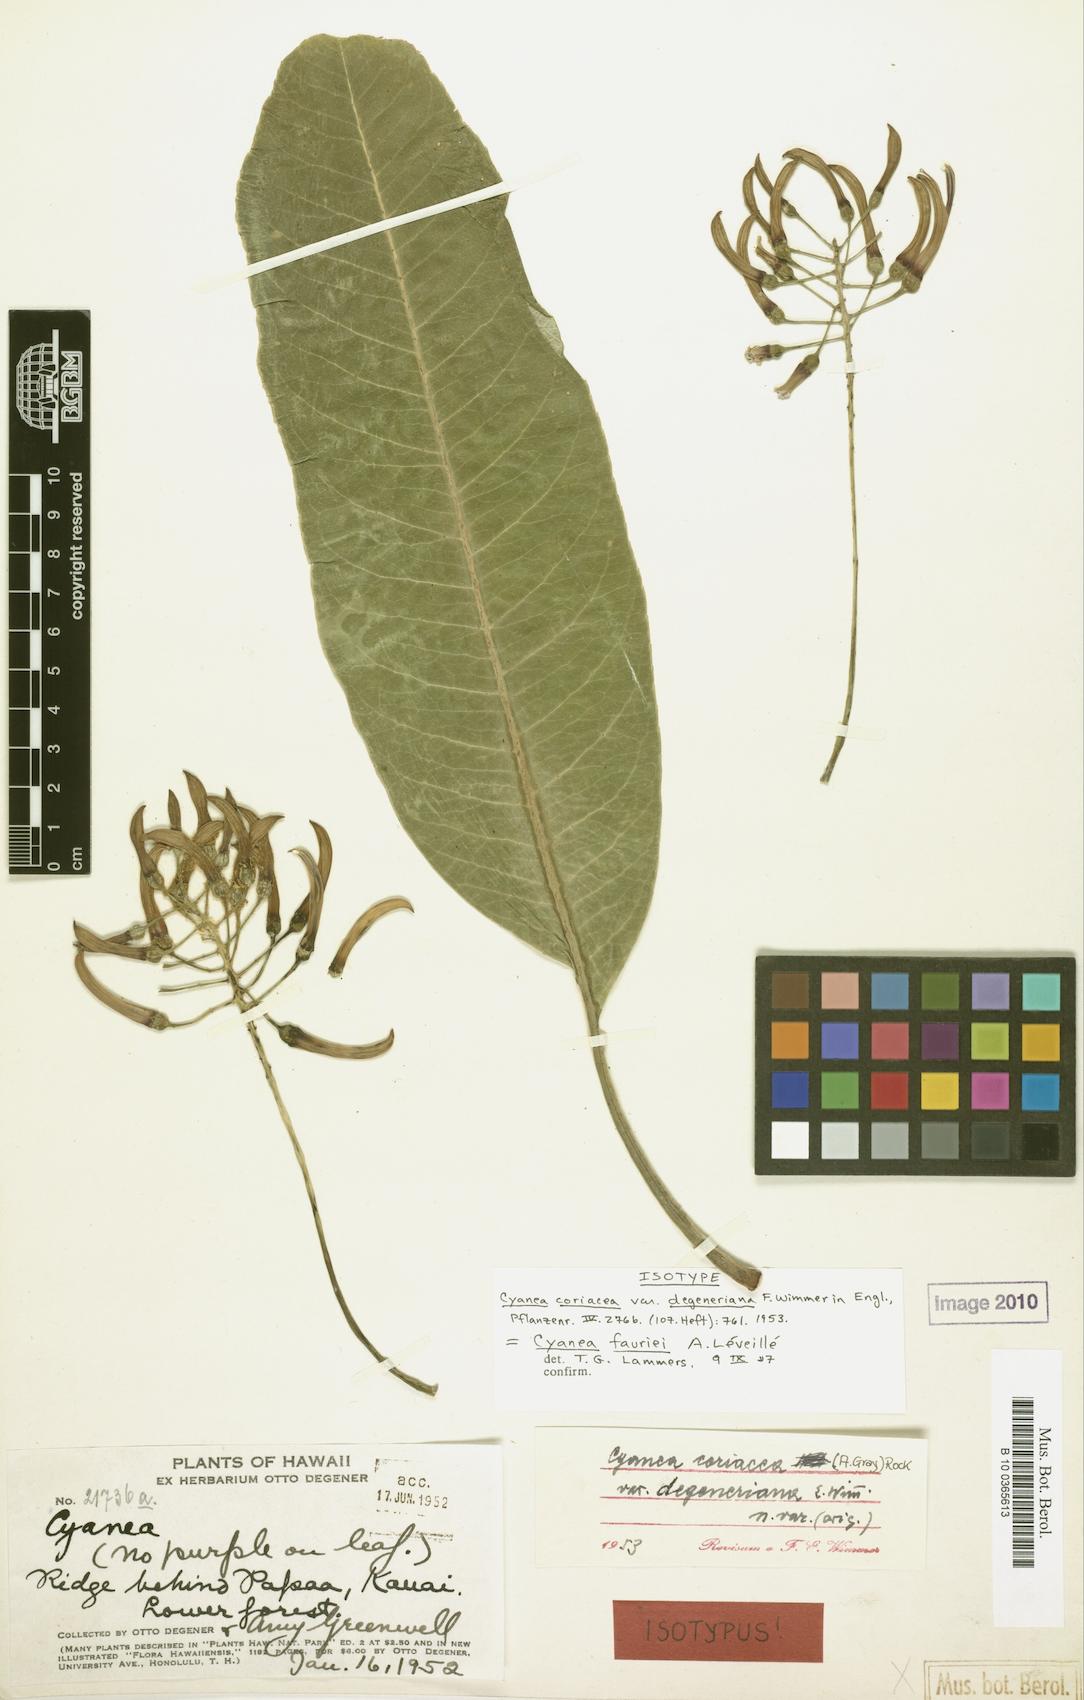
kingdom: Plantae
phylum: Tracheophyta
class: Magnoliopsida
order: Asterales
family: Campanulaceae
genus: Cyanea
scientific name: Cyanea coriacea
